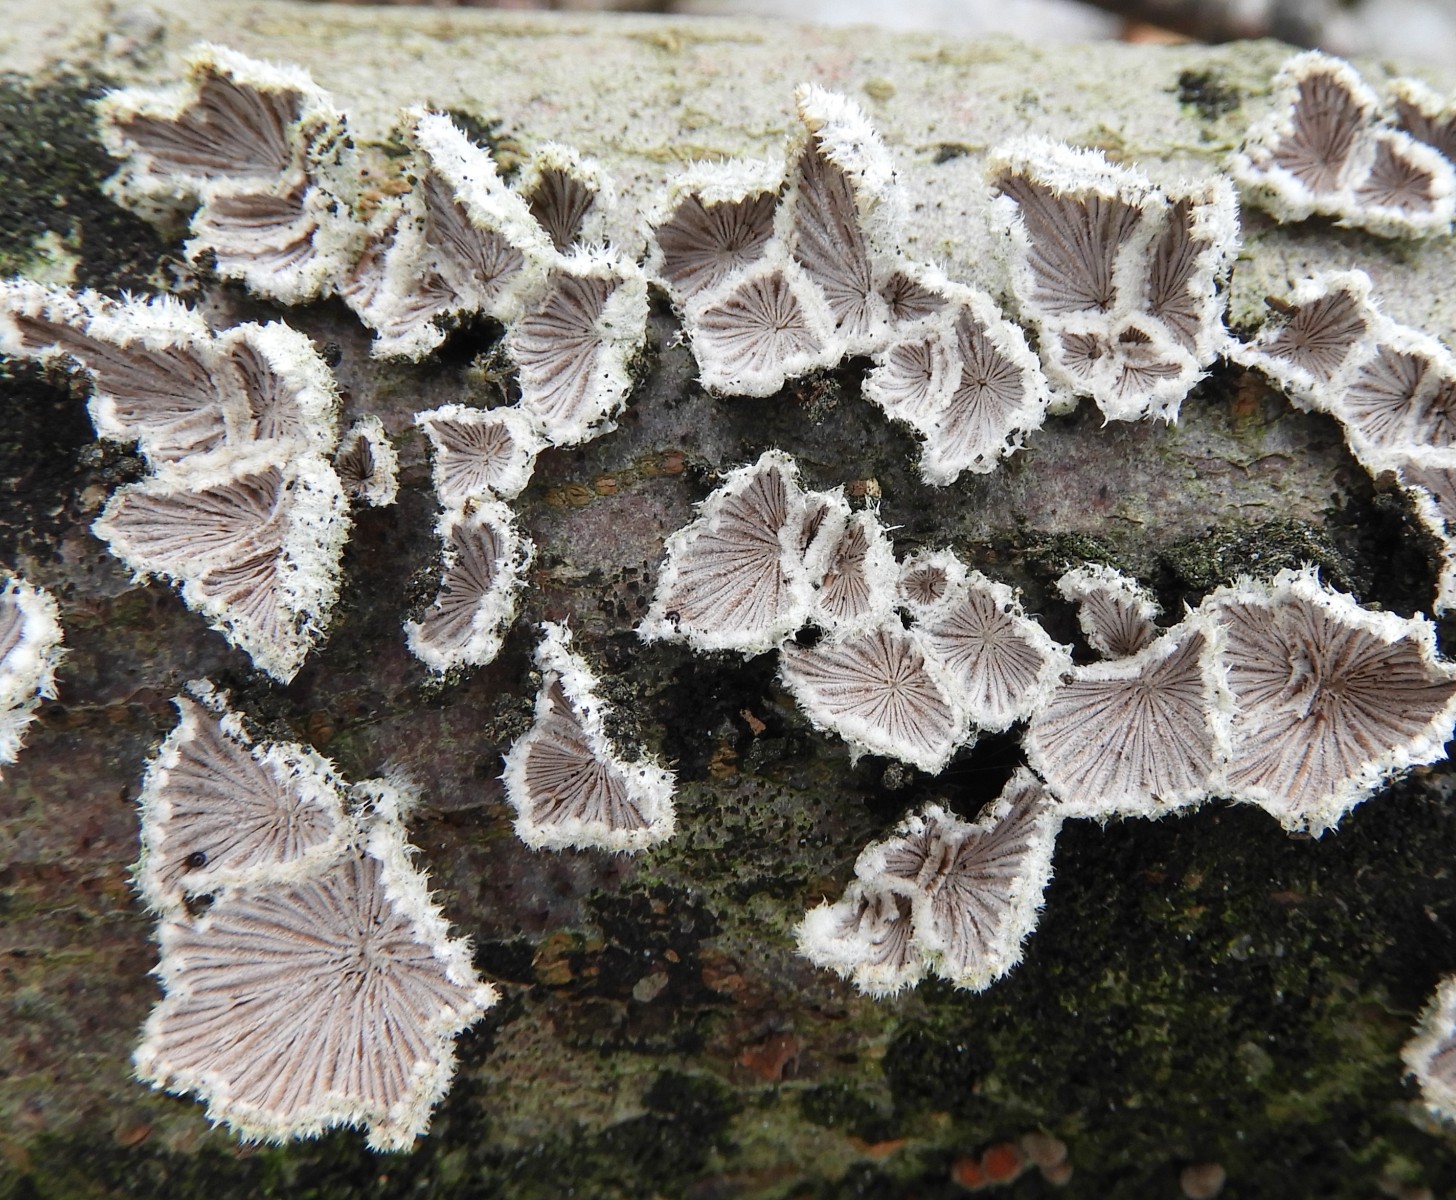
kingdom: Fungi
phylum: Basidiomycota
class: Agaricomycetes
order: Agaricales
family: Schizophyllaceae
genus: Schizophyllum
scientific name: Schizophyllum commune
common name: kløvblad
